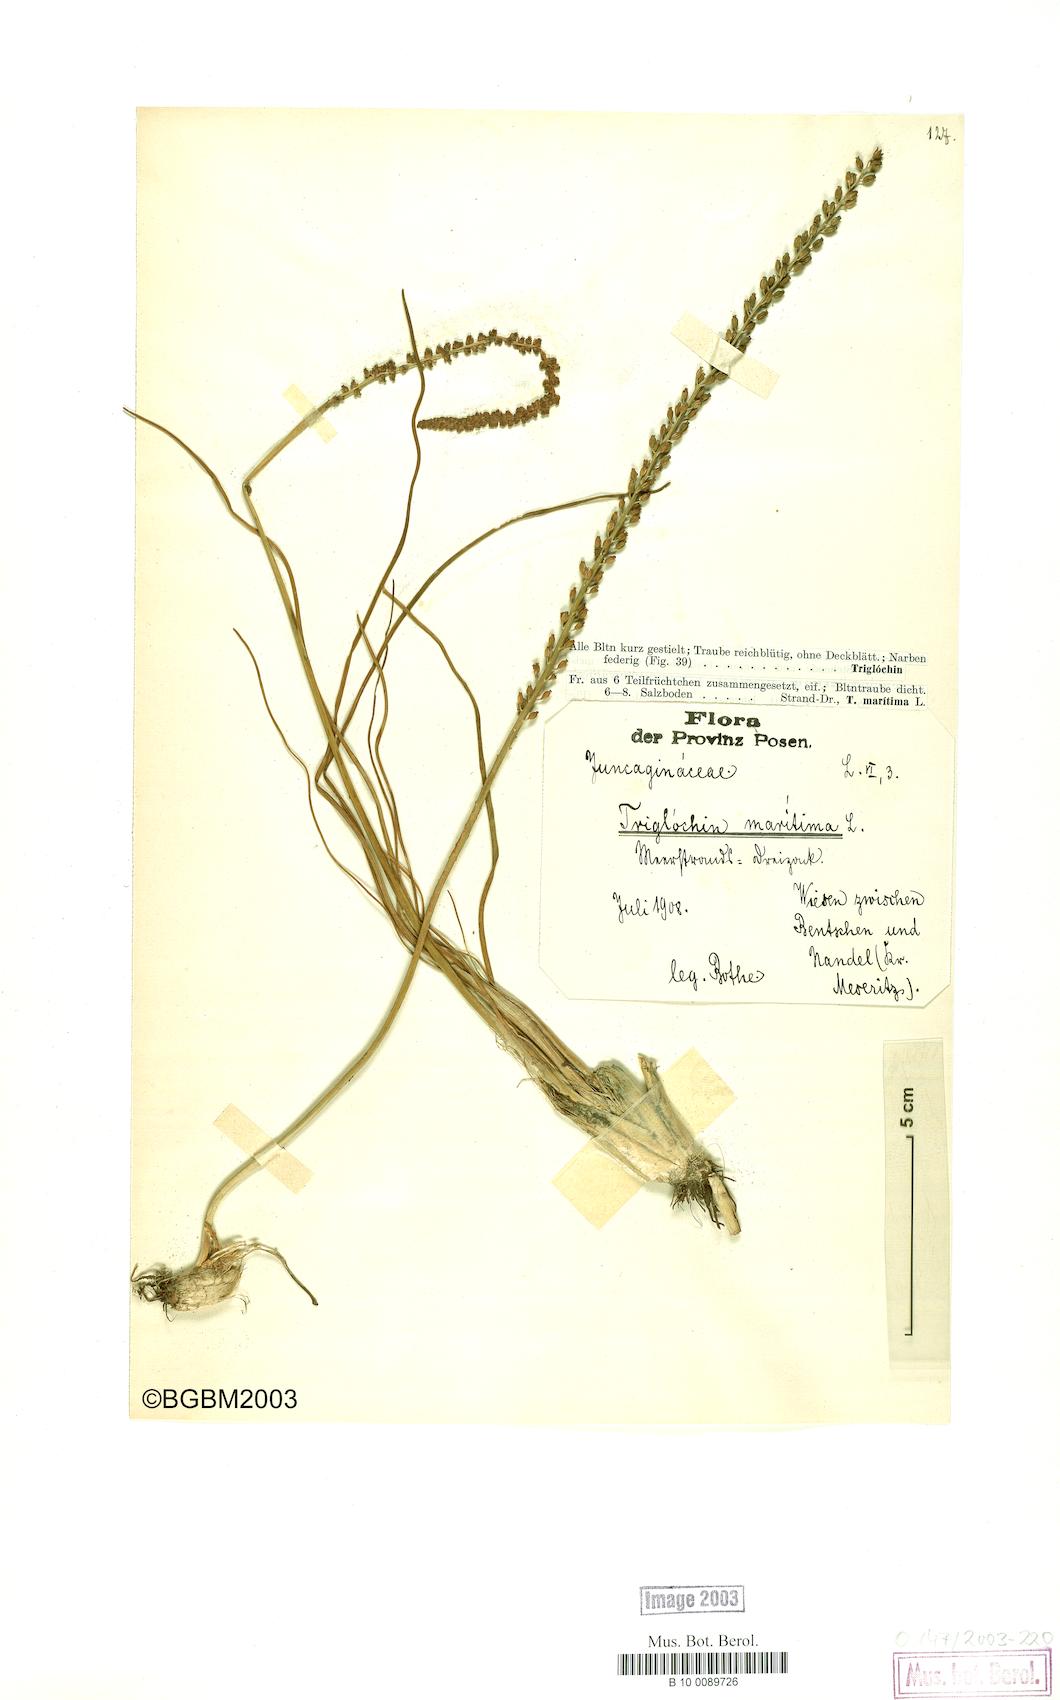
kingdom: Plantae
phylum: Tracheophyta
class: Liliopsida
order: Alismatales
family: Juncaginaceae
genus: Triglochin
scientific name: Triglochin maritima
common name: Sea arrowgrass
